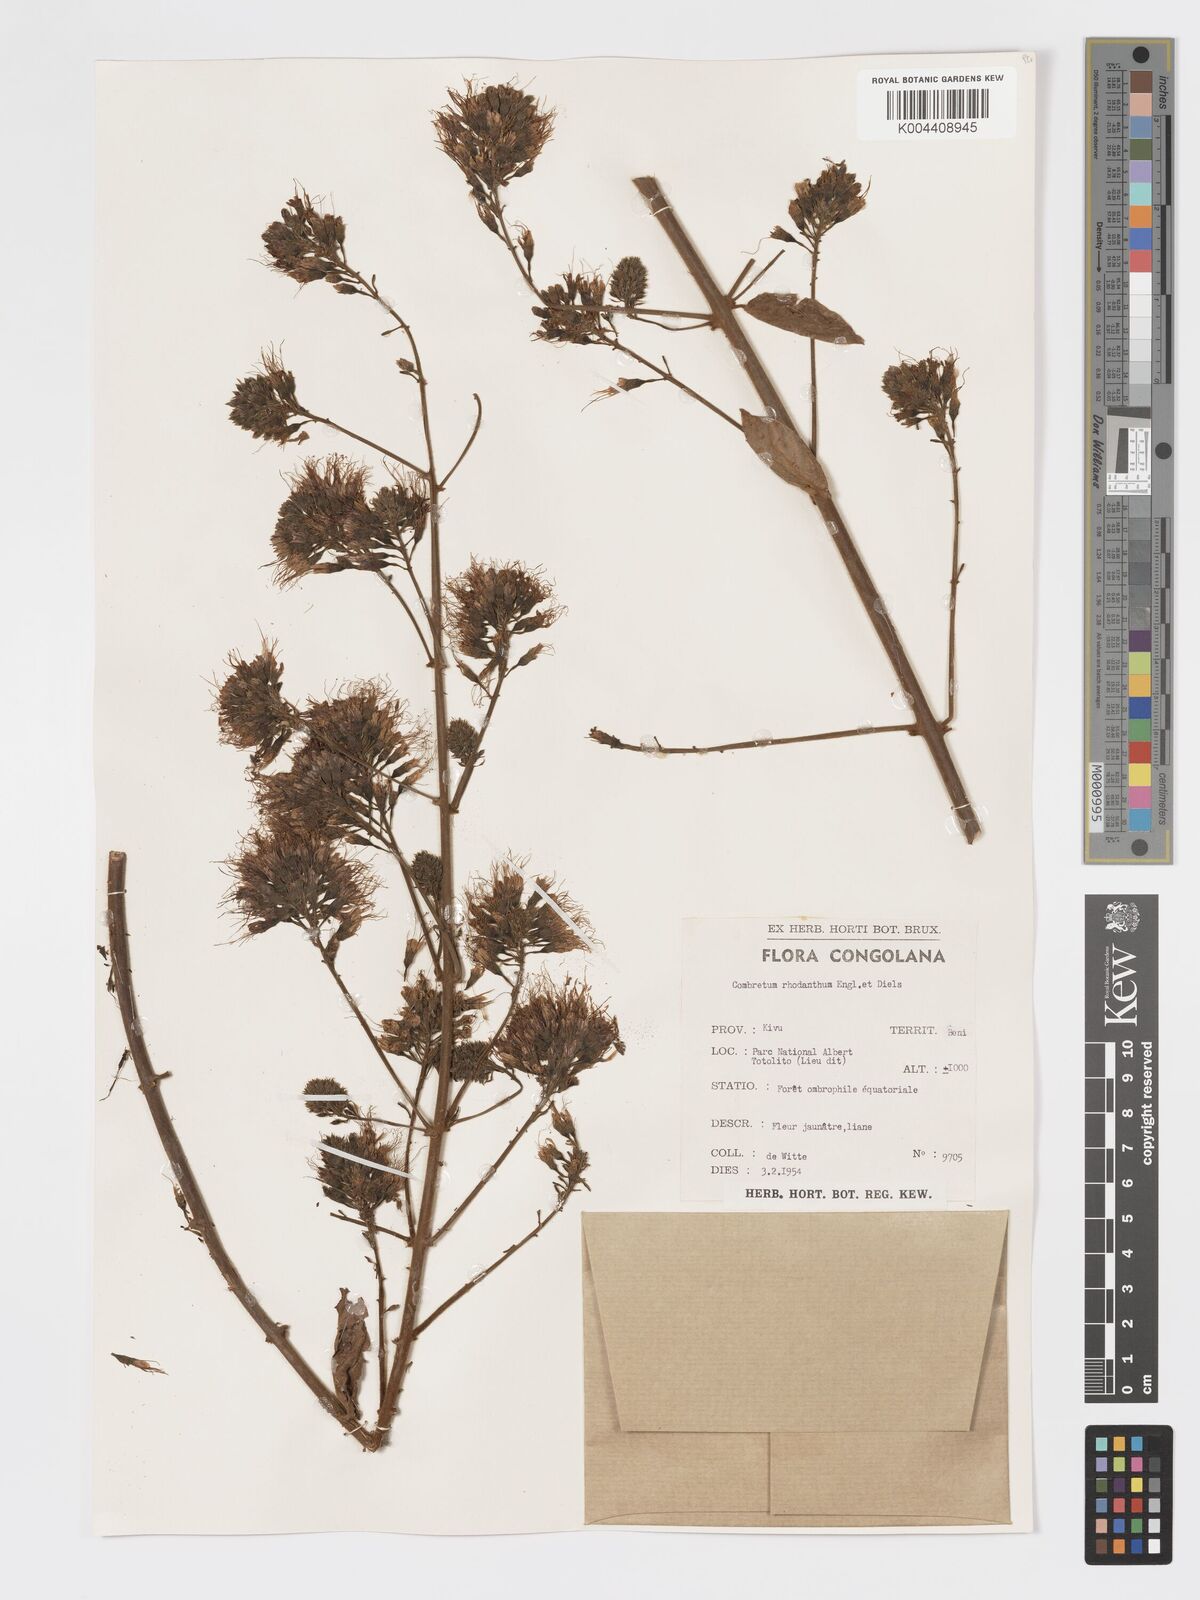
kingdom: Plantae
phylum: Tracheophyta
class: Magnoliopsida
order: Myrtales
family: Combretaceae
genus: Combretum
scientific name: Combretum comosum
